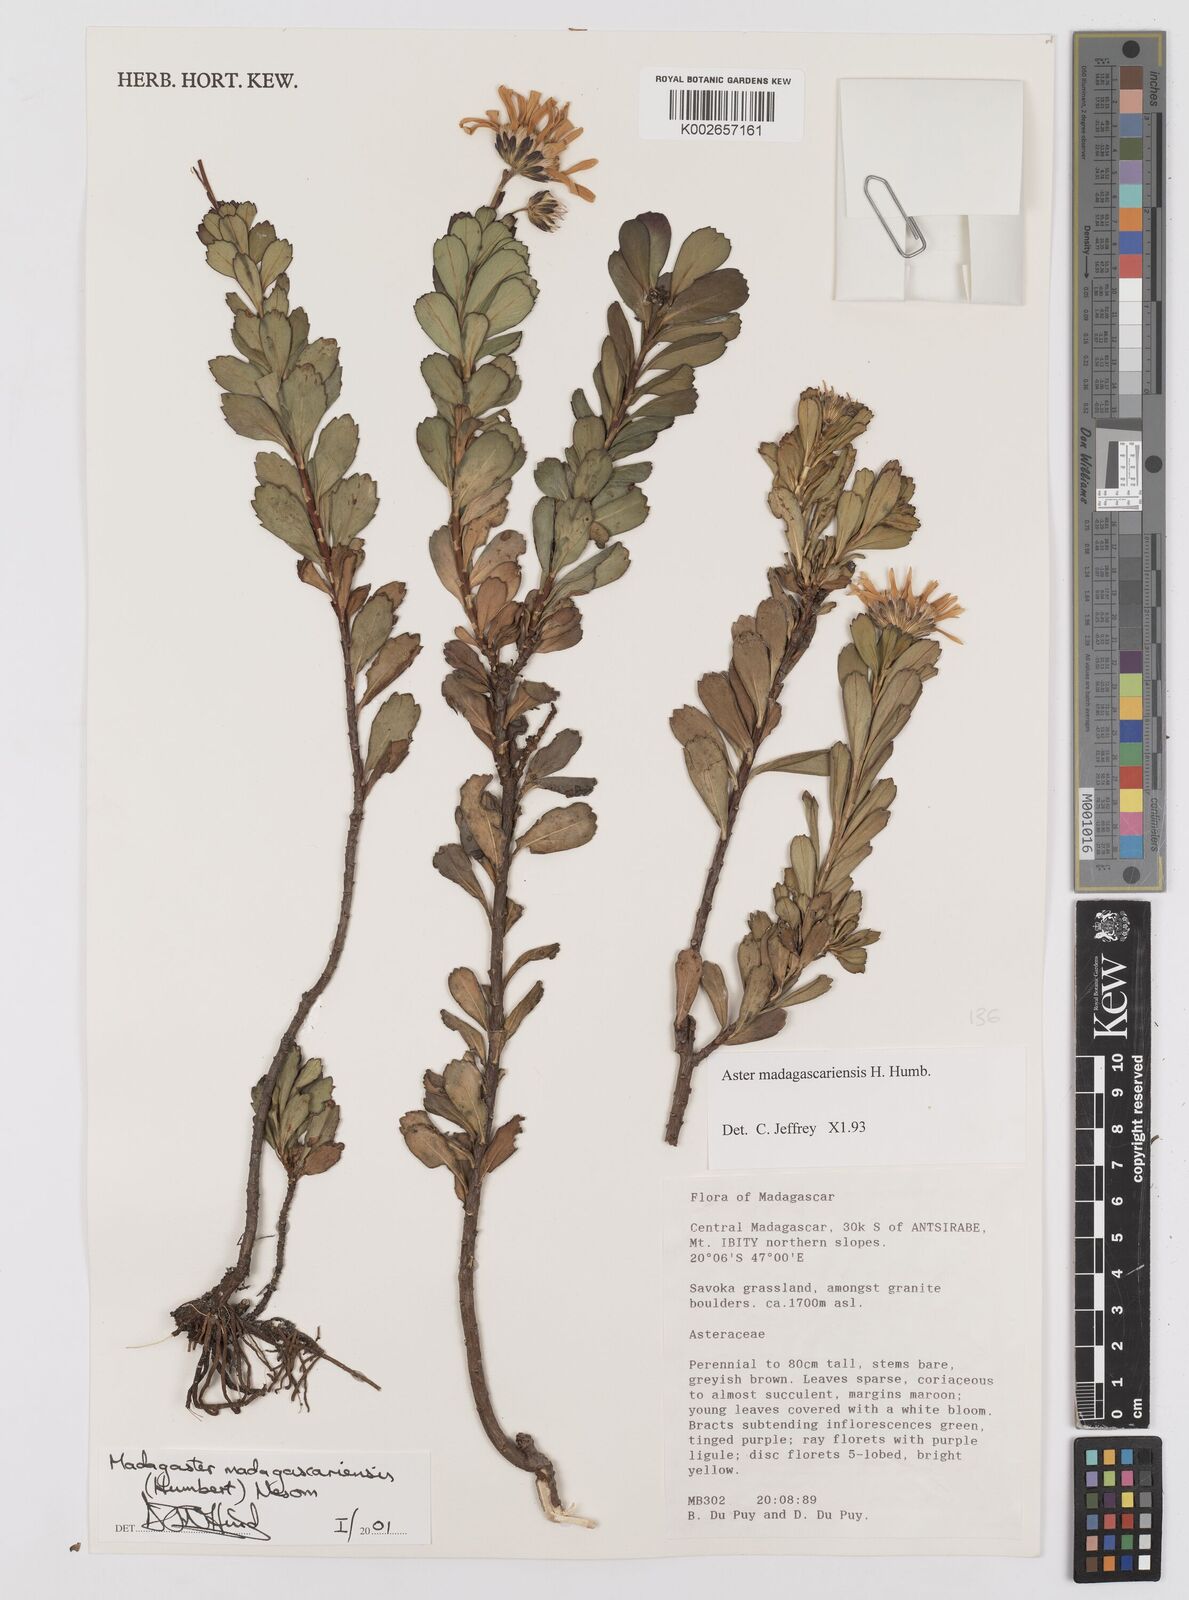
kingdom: Plantae
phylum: Tracheophyta
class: Magnoliopsida
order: Asterales
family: Asteraceae
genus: Madagaster
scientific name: Madagaster madagascariensis
